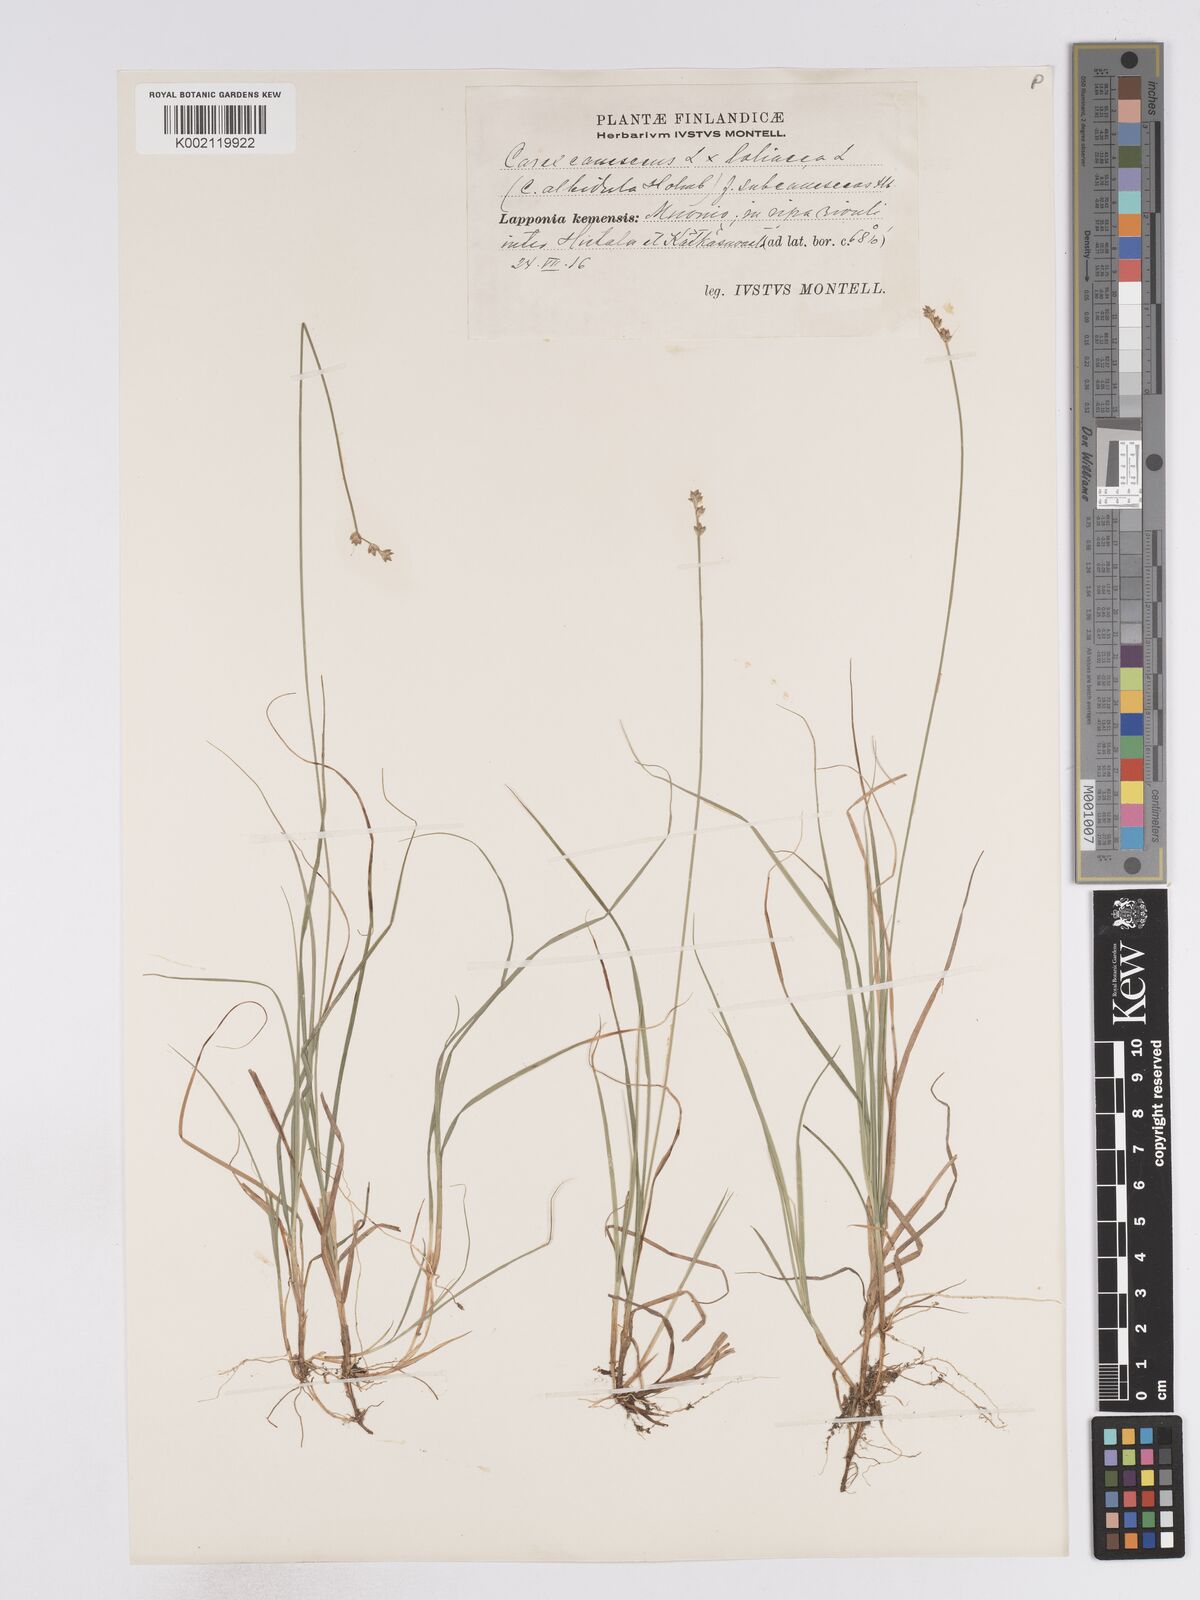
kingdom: Plantae
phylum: Tracheophyta
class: Liliopsida
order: Poales
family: Cyperaceae
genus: Carex
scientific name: Carex curta
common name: White sedge
